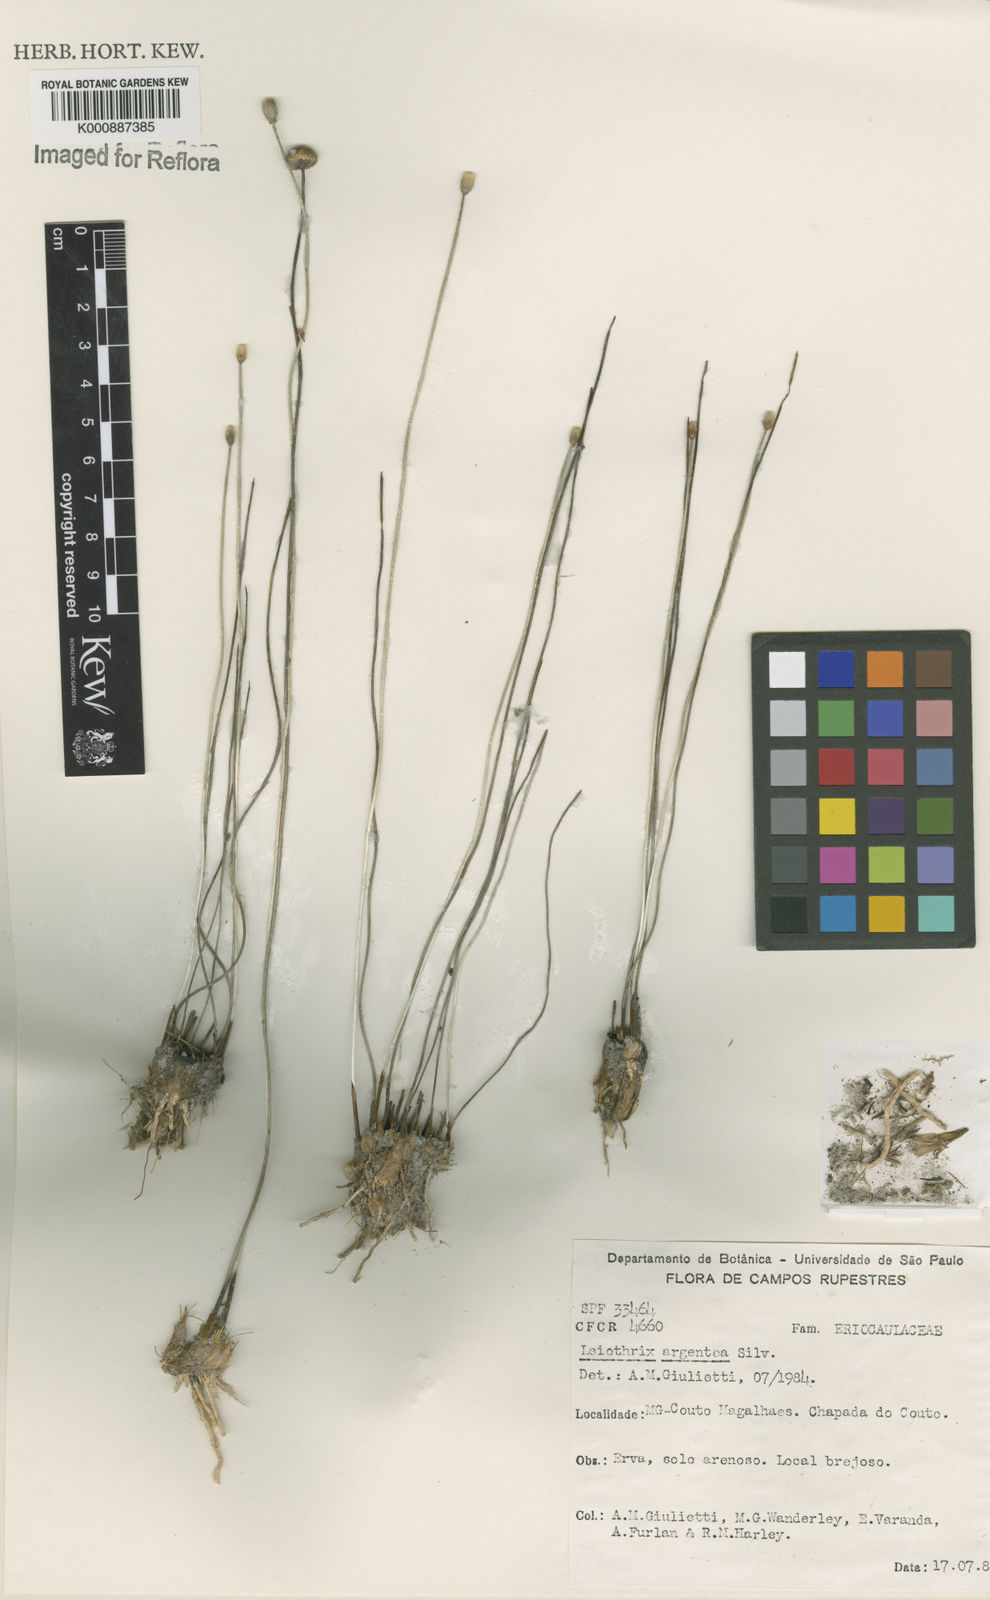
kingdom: Plantae
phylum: Tracheophyta
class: Liliopsida
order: Poales
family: Eriocaulaceae
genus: Leiothrix
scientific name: Leiothrix argentea
